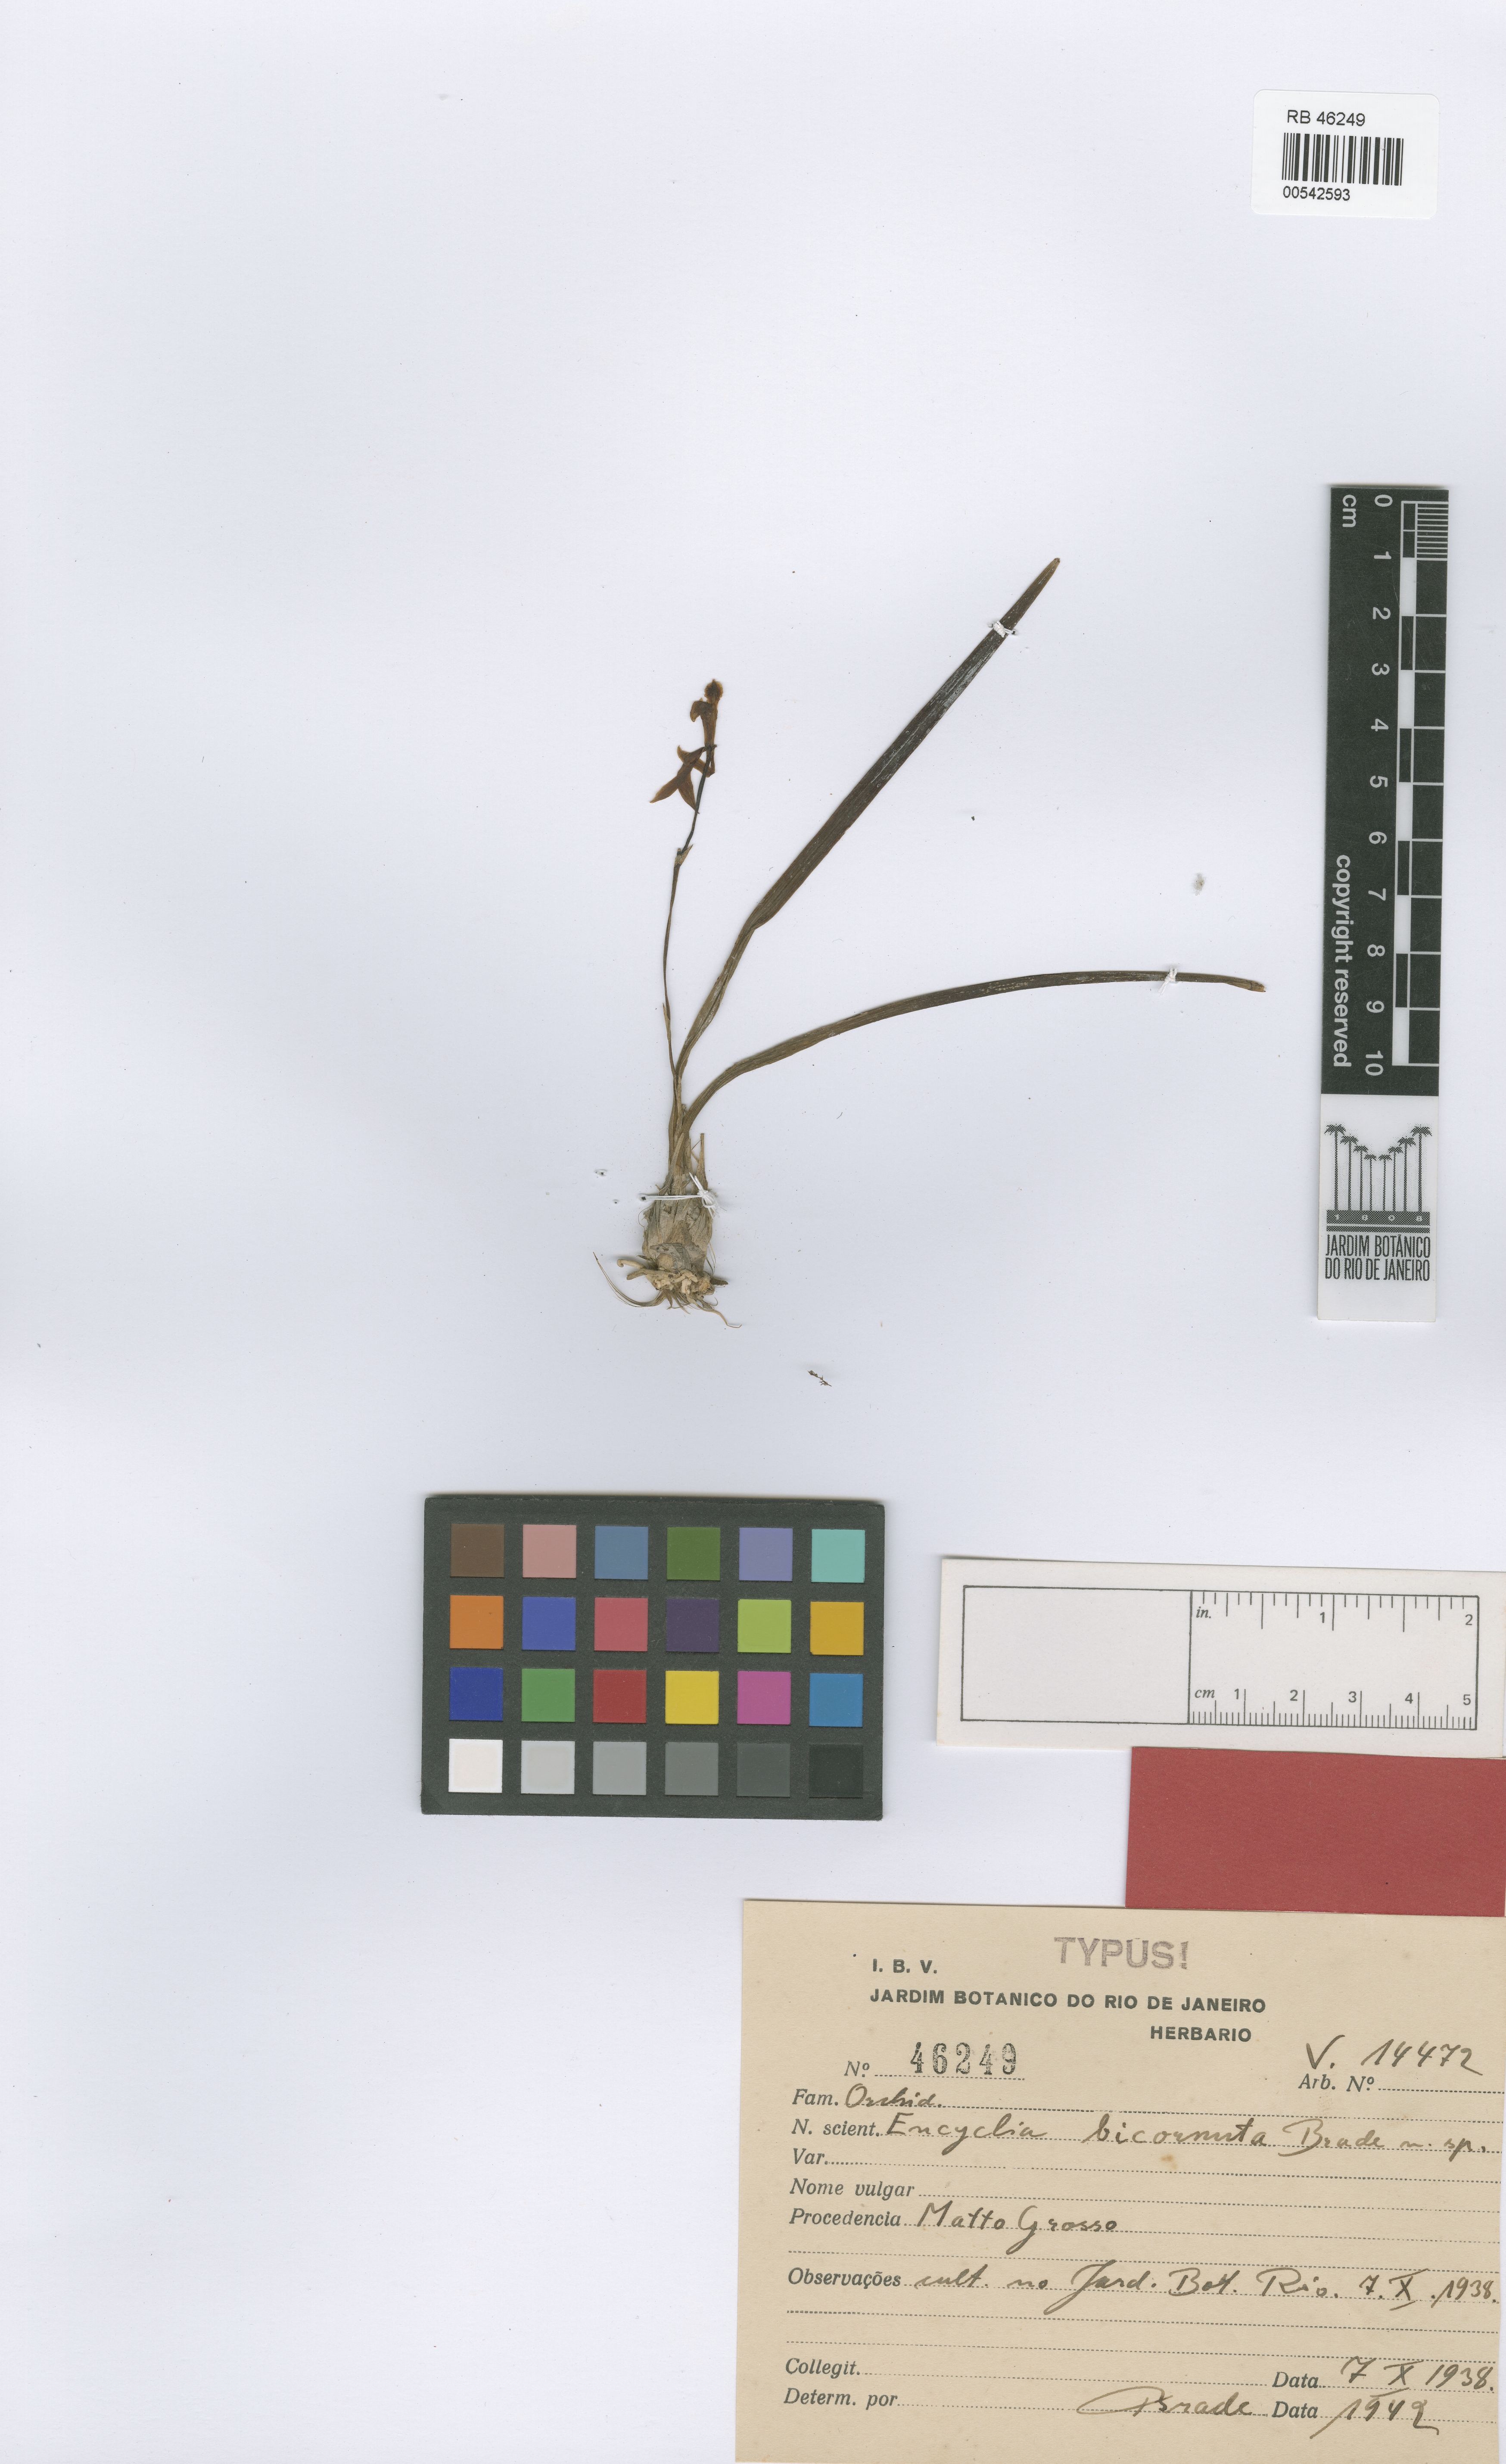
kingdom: Plantae
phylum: Tracheophyta
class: Liliopsida
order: Asparagales
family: Orchidaceae
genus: Encyclia
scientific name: Encyclia linearifolioides
